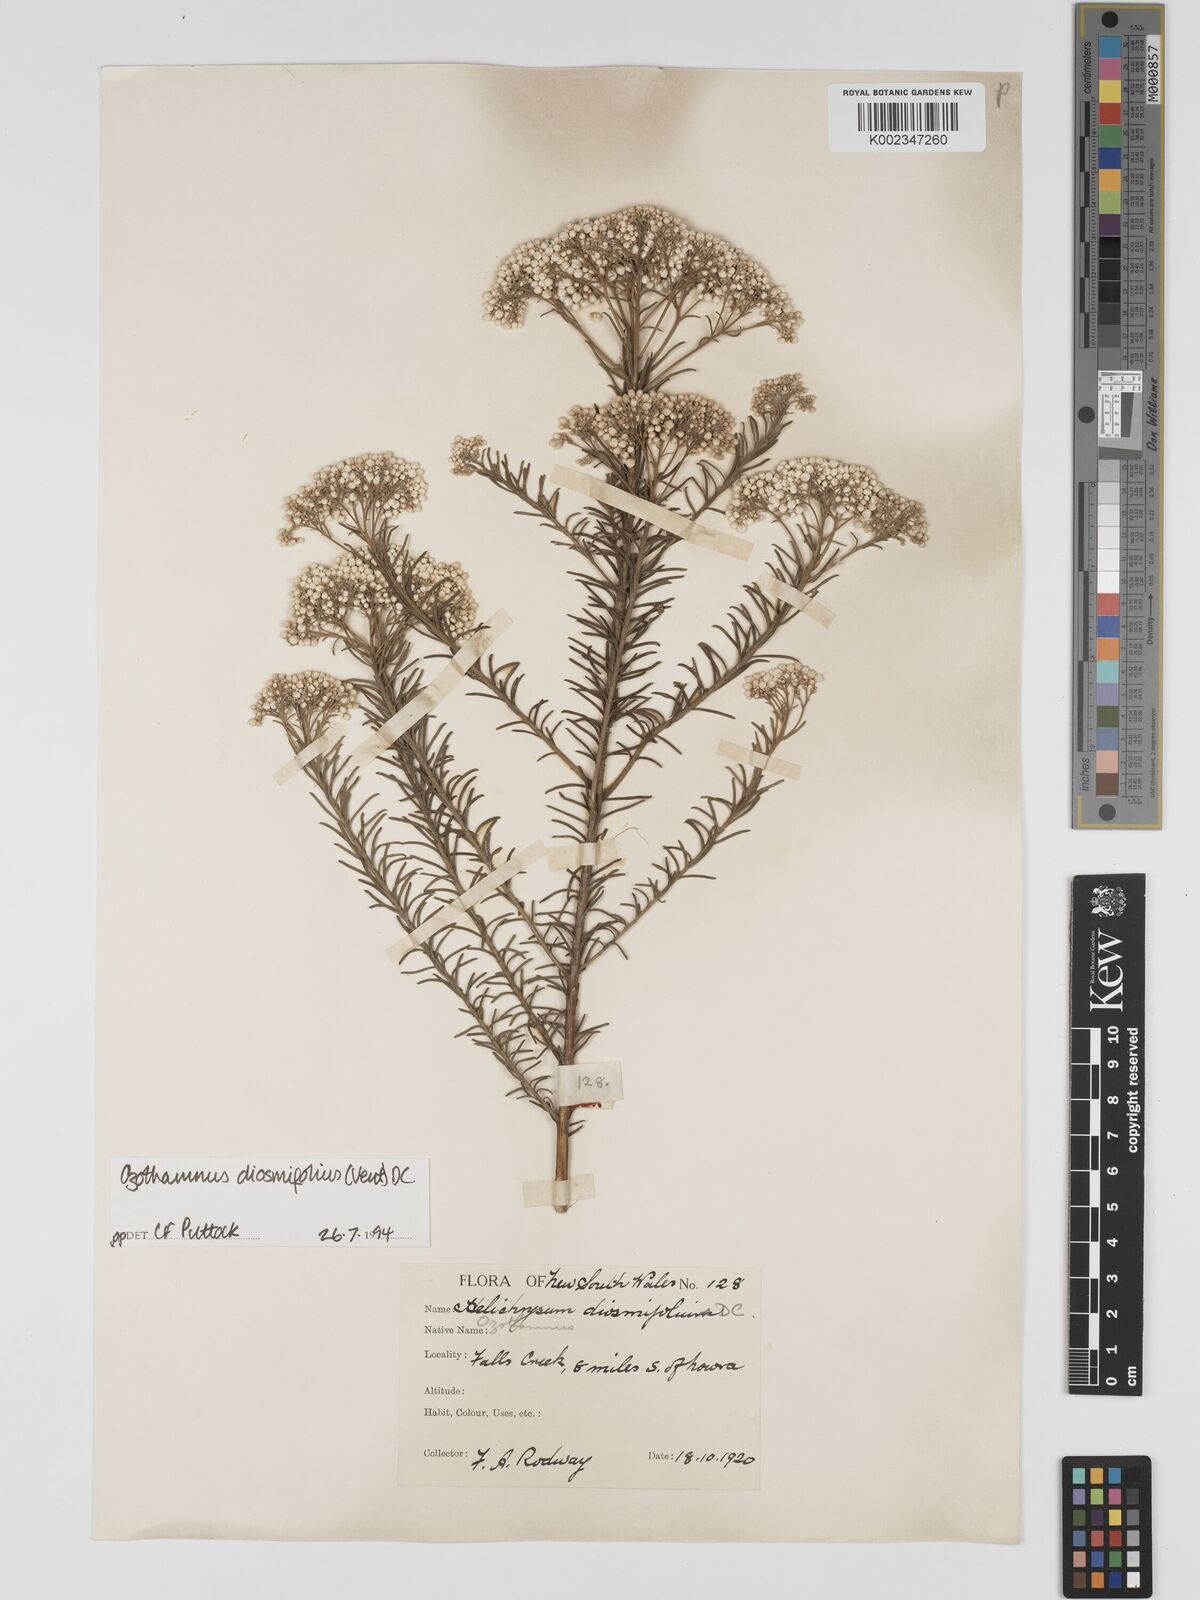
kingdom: Plantae
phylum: Tracheophyta
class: Magnoliopsida
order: Asterales
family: Asteraceae
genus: Ozothamnus
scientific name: Ozothamnus diosmifolius
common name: White-dogwood
